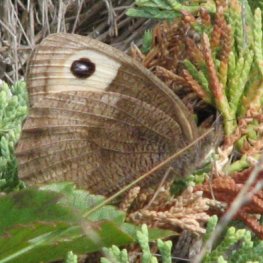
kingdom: Animalia
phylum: Arthropoda
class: Insecta
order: Lepidoptera
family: Nymphalidae
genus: Cercyonis
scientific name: Cercyonis pegala
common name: Common Wood-Nymph
